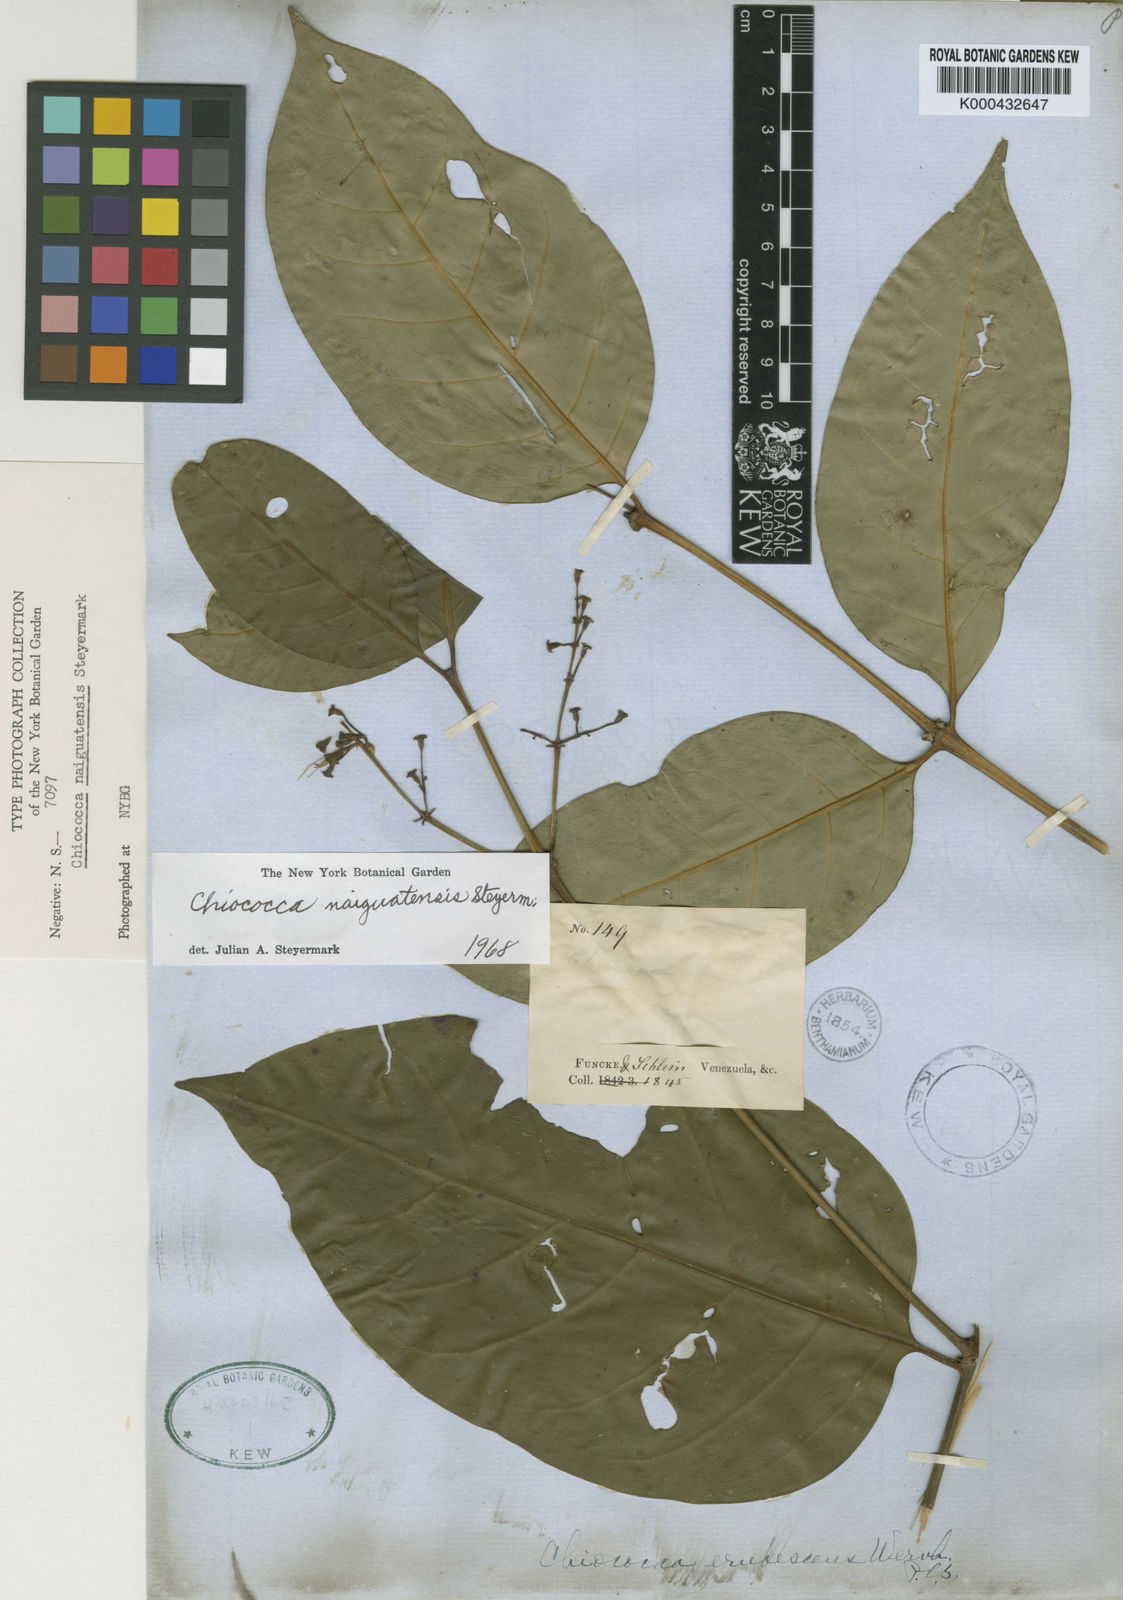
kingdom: Plantae
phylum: Tracheophyta
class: Magnoliopsida
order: Gentianales
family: Rubiaceae
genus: Chiococca
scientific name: Chiococca nitida
